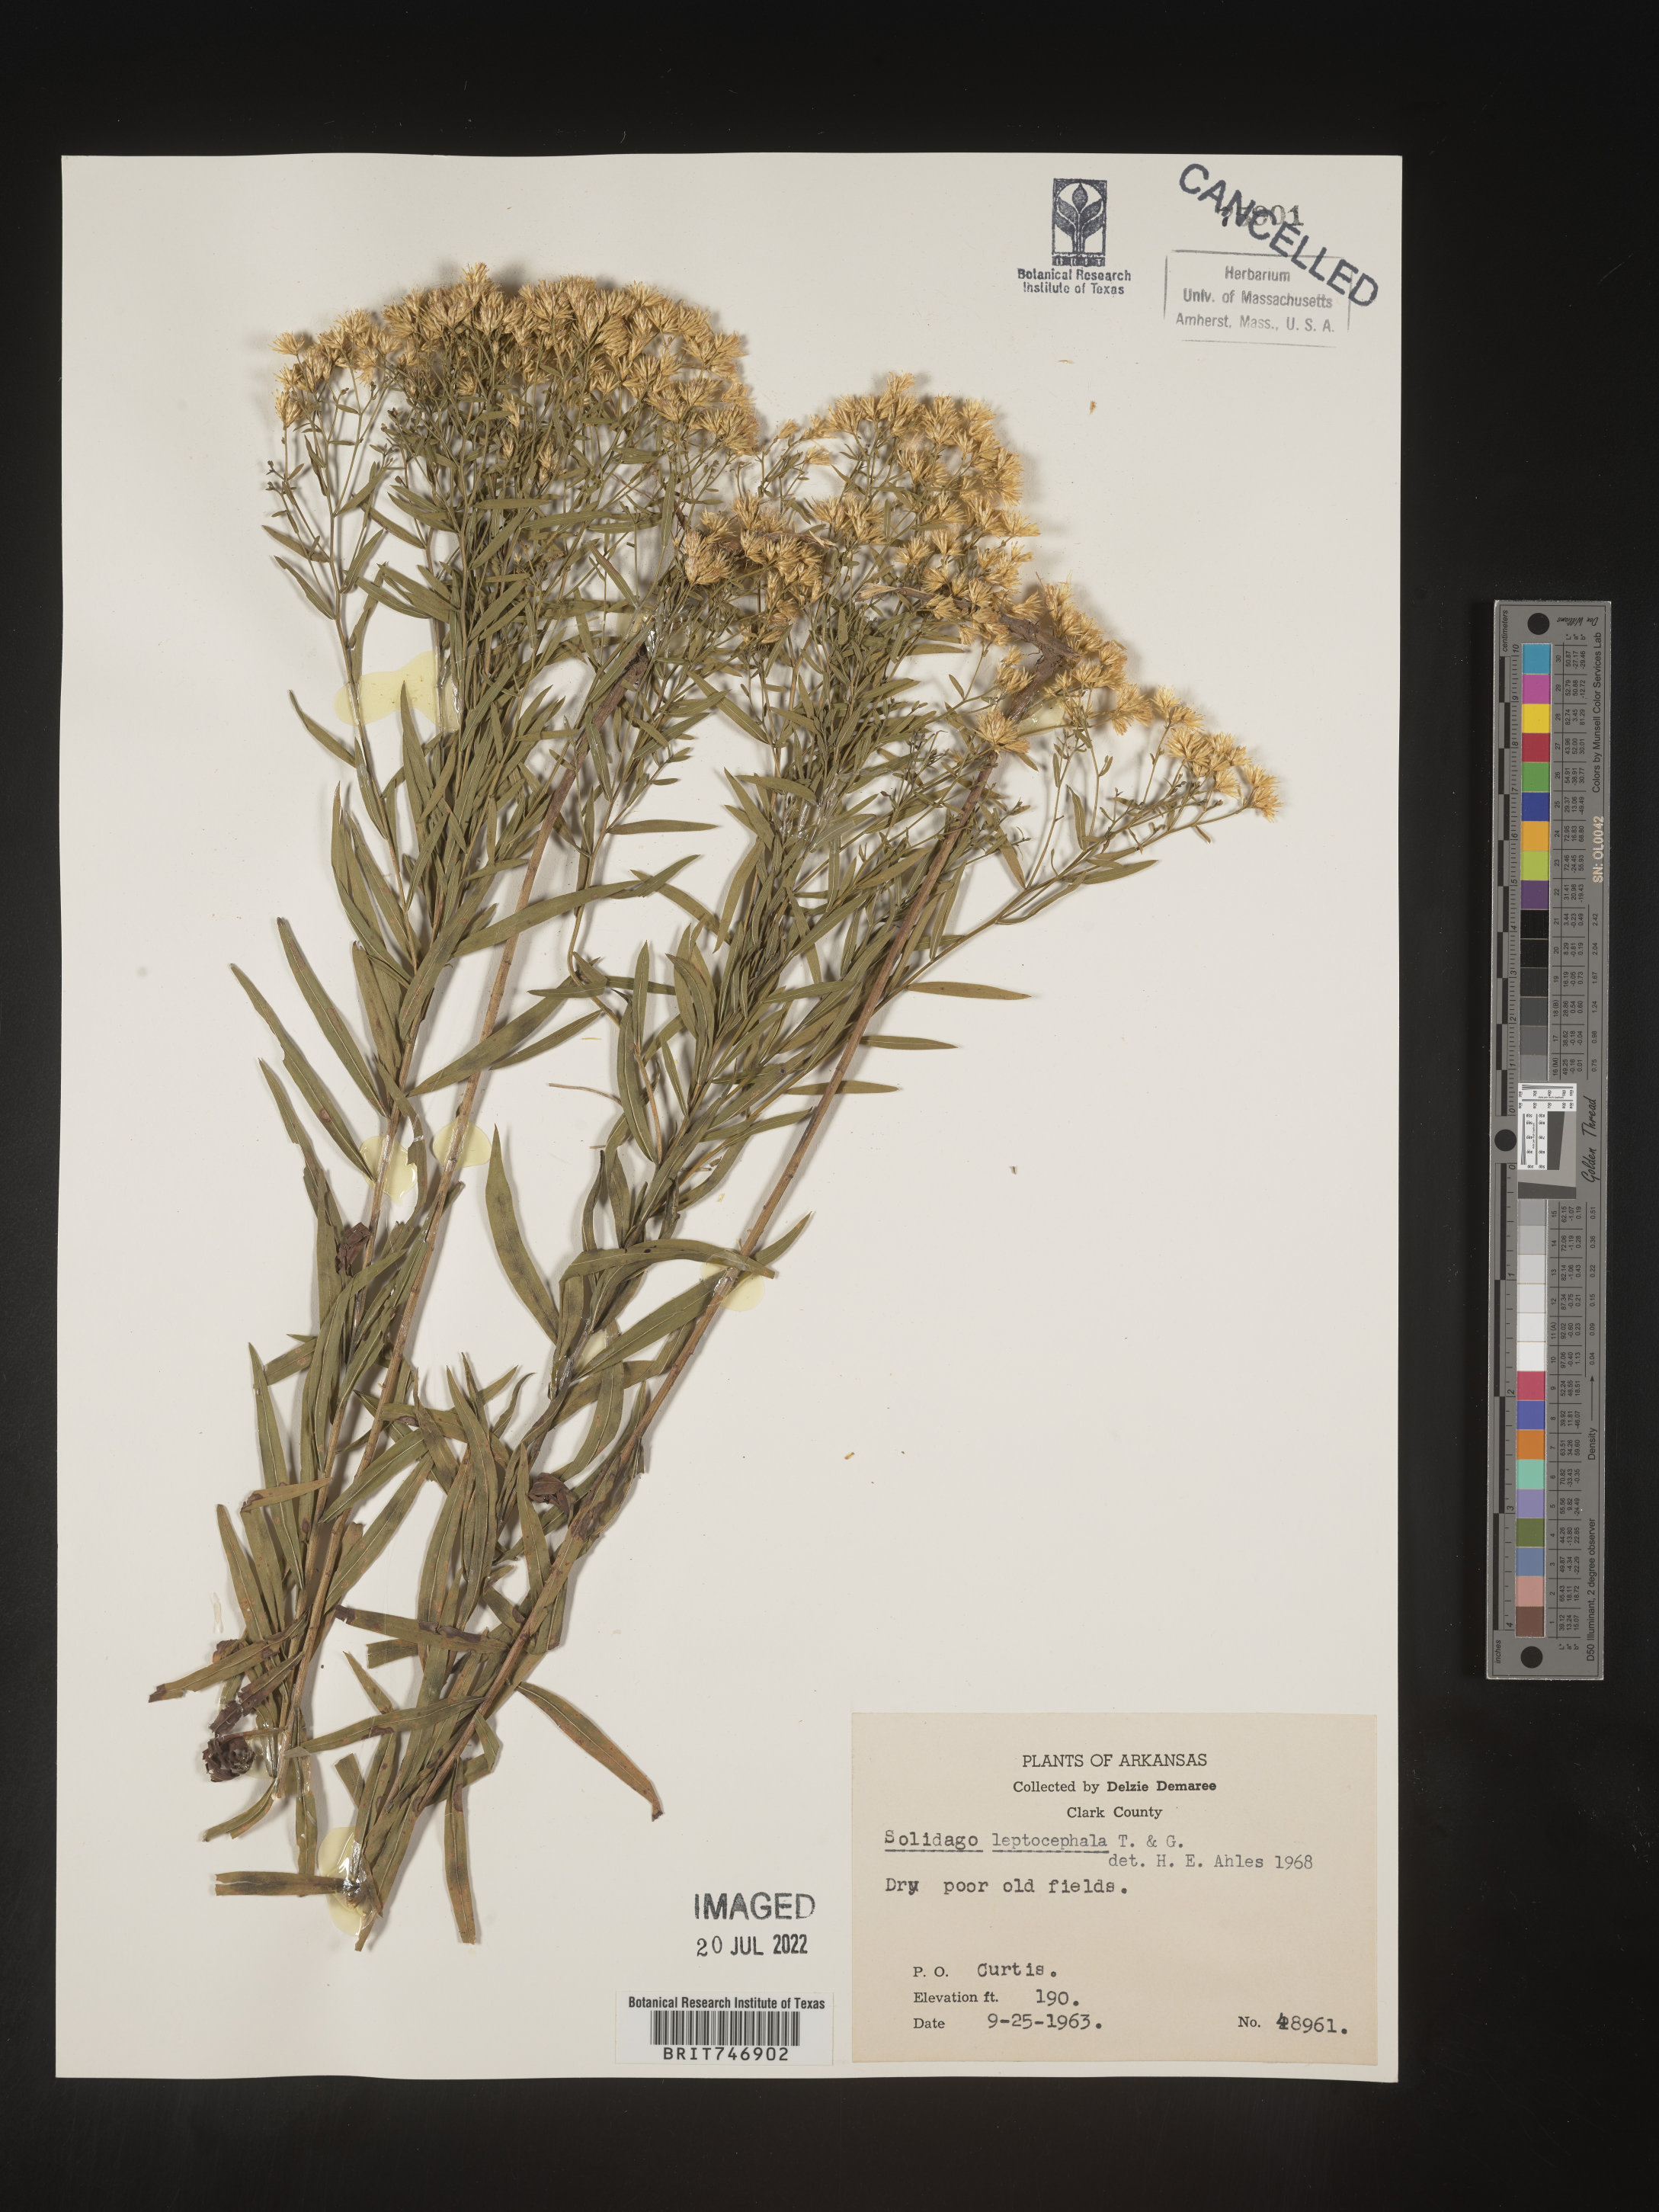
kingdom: Plantae
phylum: Tracheophyta
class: Magnoliopsida
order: Asterales
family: Asteraceae
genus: Euthamia
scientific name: Euthamia leptocephala
